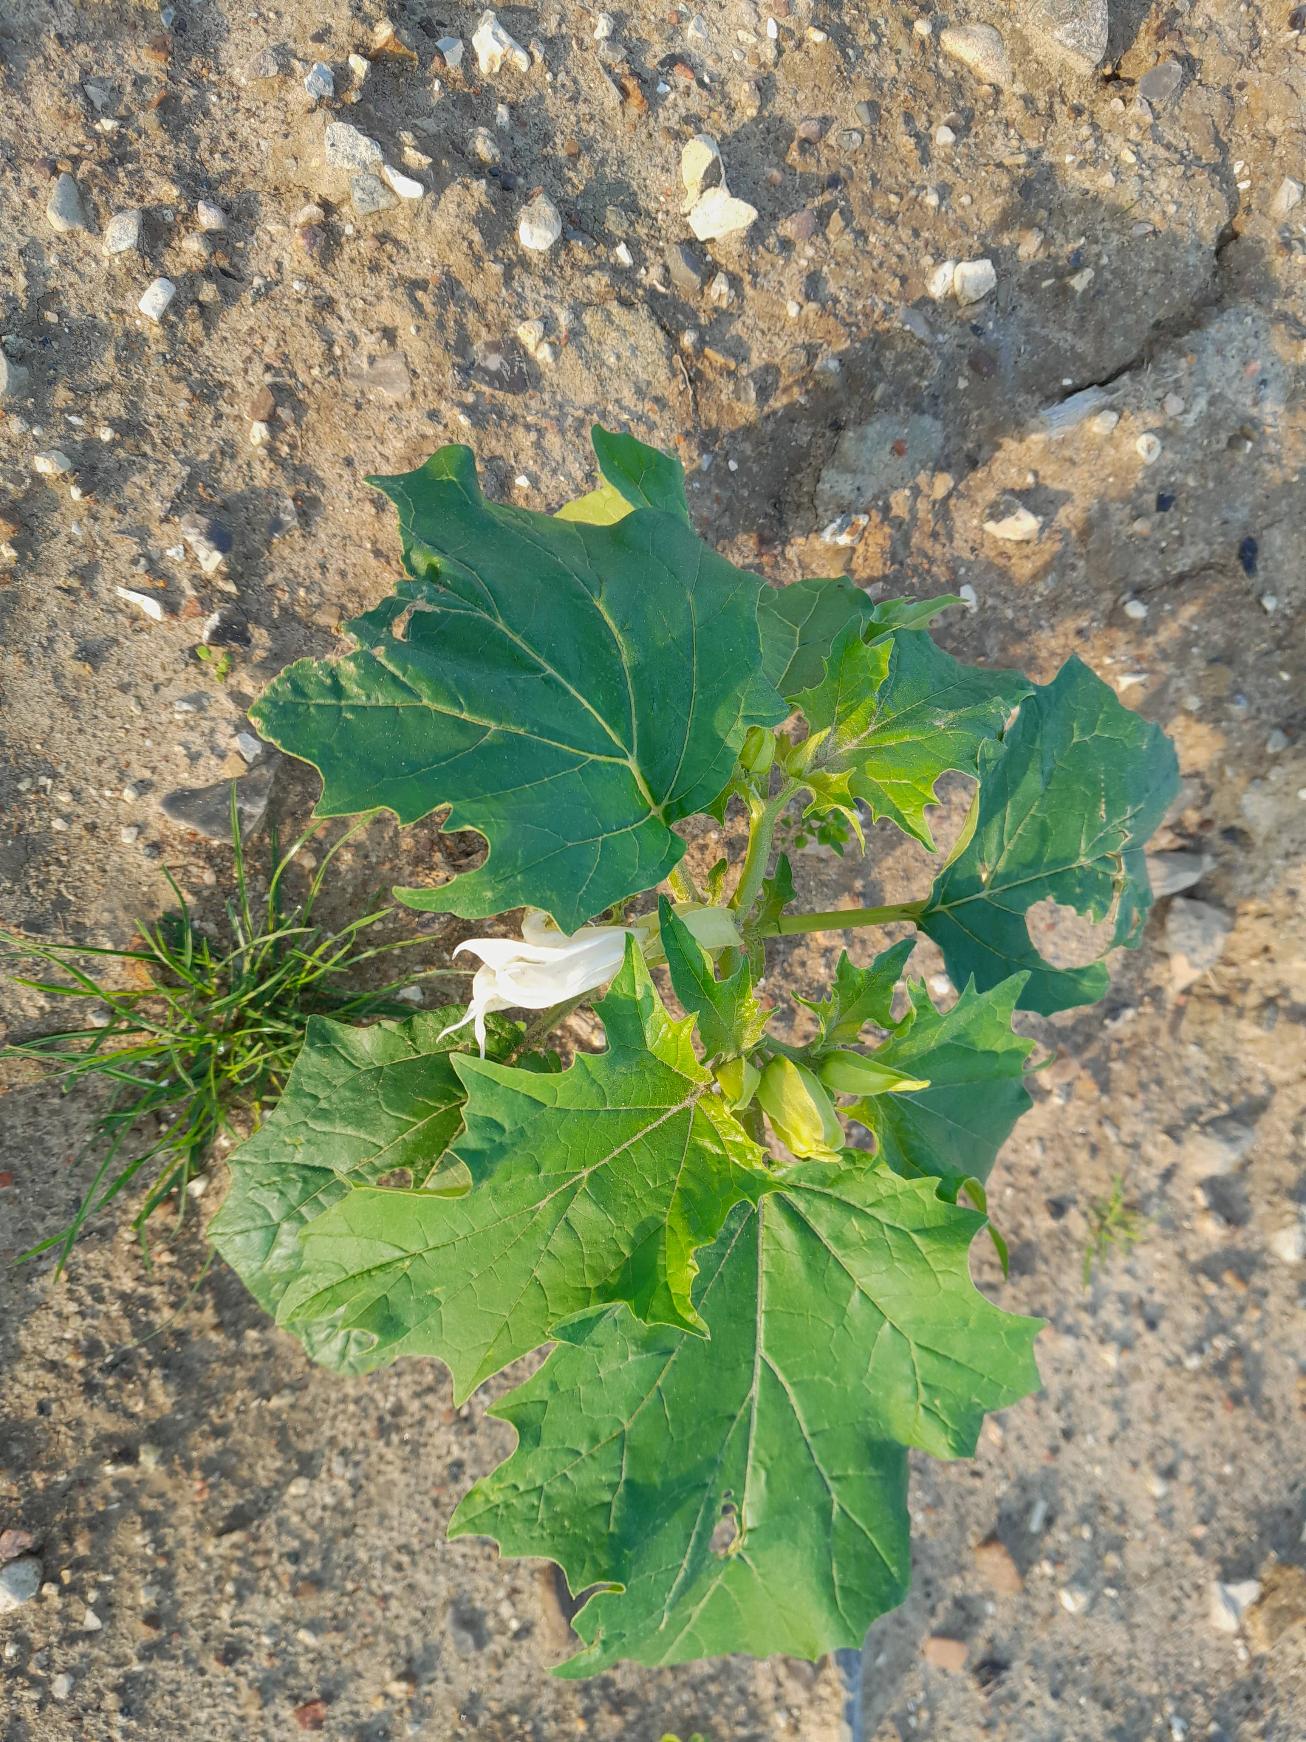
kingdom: Plantae
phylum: Tracheophyta
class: Magnoliopsida
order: Solanales
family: Solanaceae
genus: Datura
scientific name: Datura stramonium
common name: Pigæble
